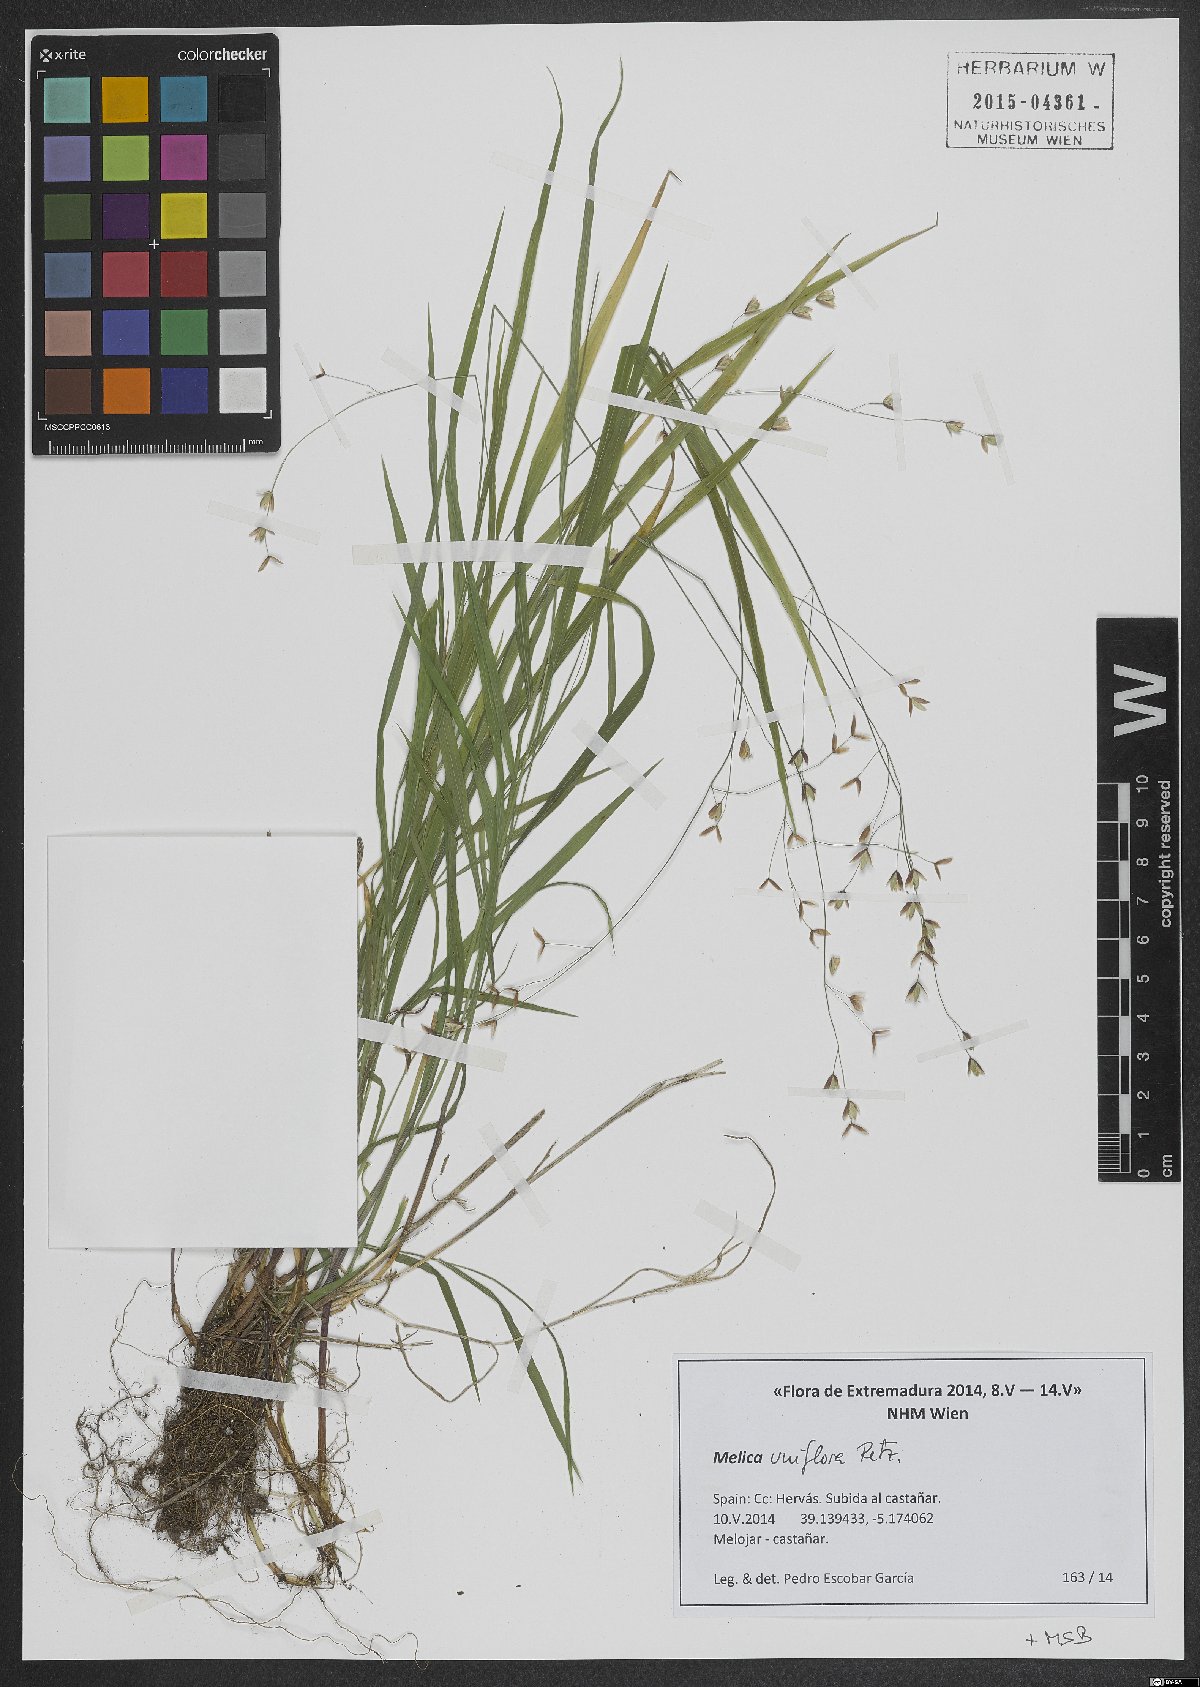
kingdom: Plantae
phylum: Tracheophyta
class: Liliopsida
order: Poales
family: Poaceae
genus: Melica
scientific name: Melica uniflora
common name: Wood melick
